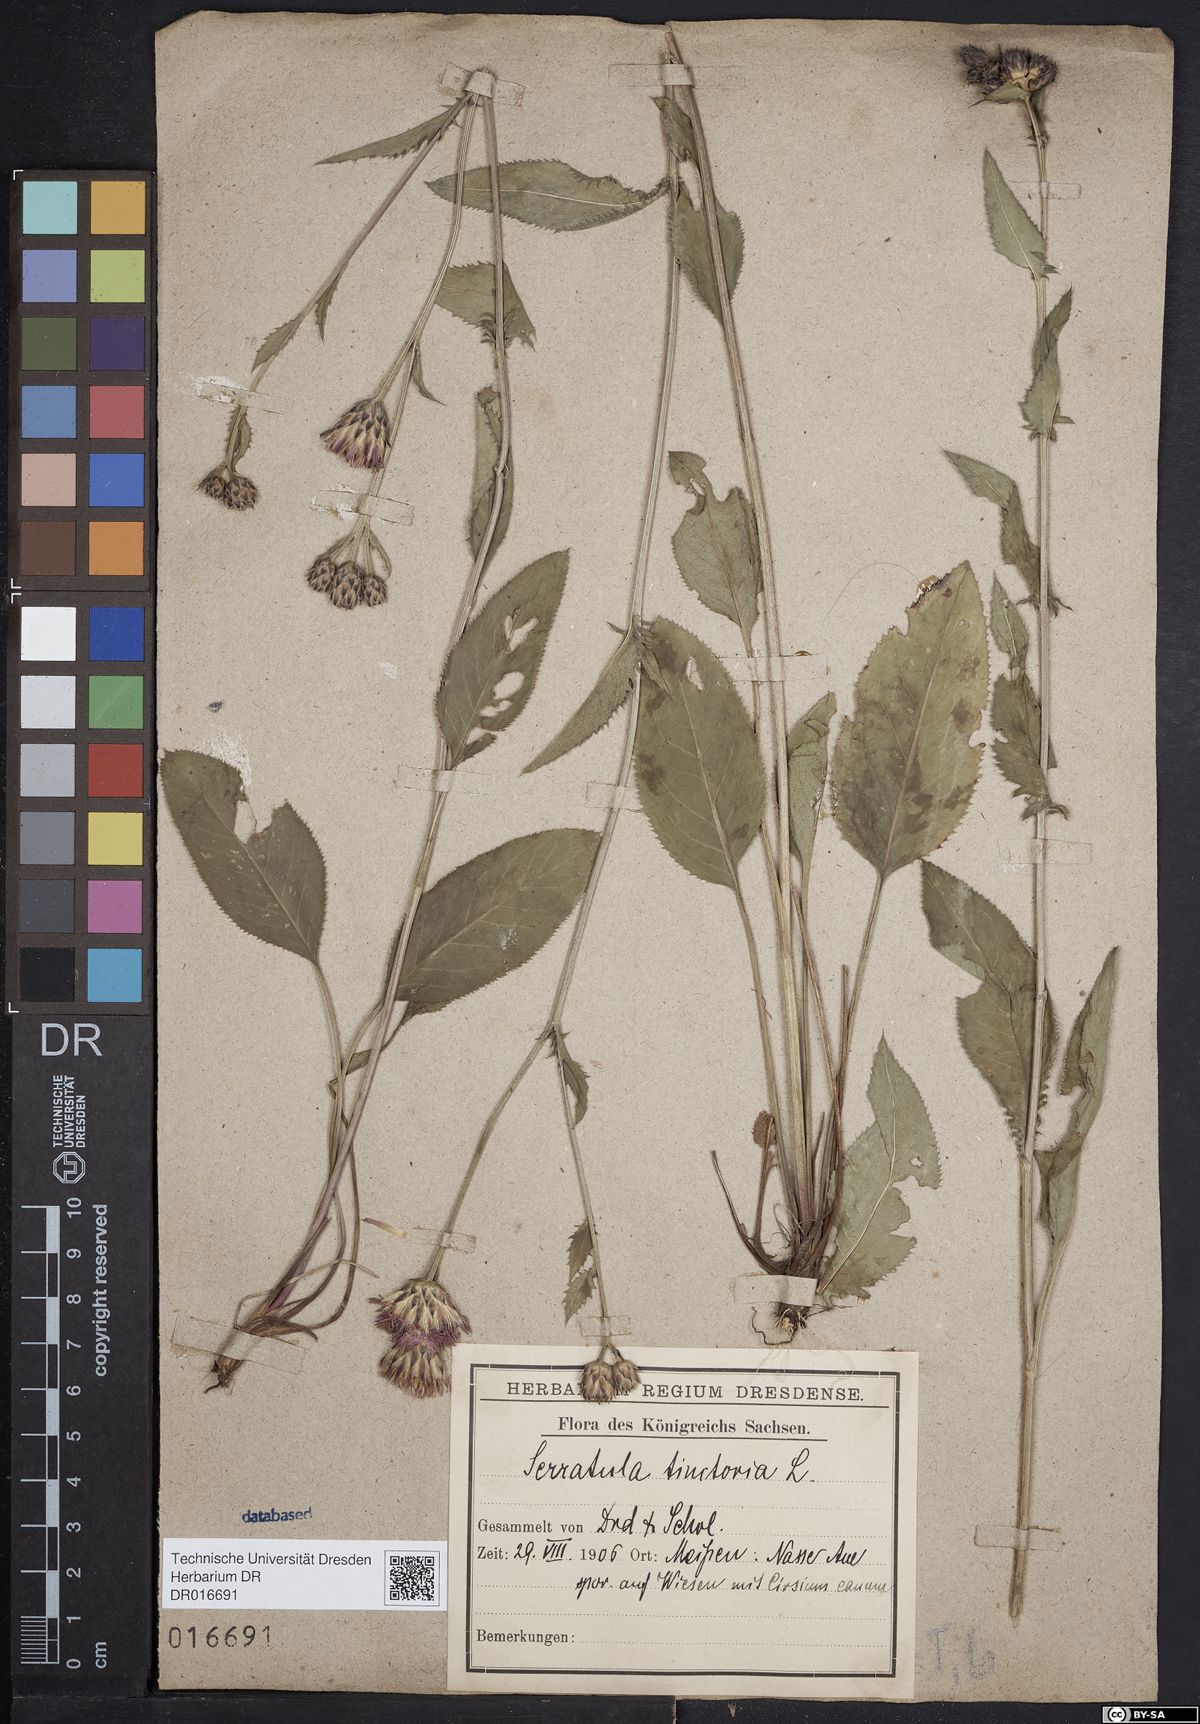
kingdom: Plantae
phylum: Tracheophyta
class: Magnoliopsida
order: Asterales
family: Asteraceae
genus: Serratula
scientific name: Serratula tinctoria
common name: Saw-wort
